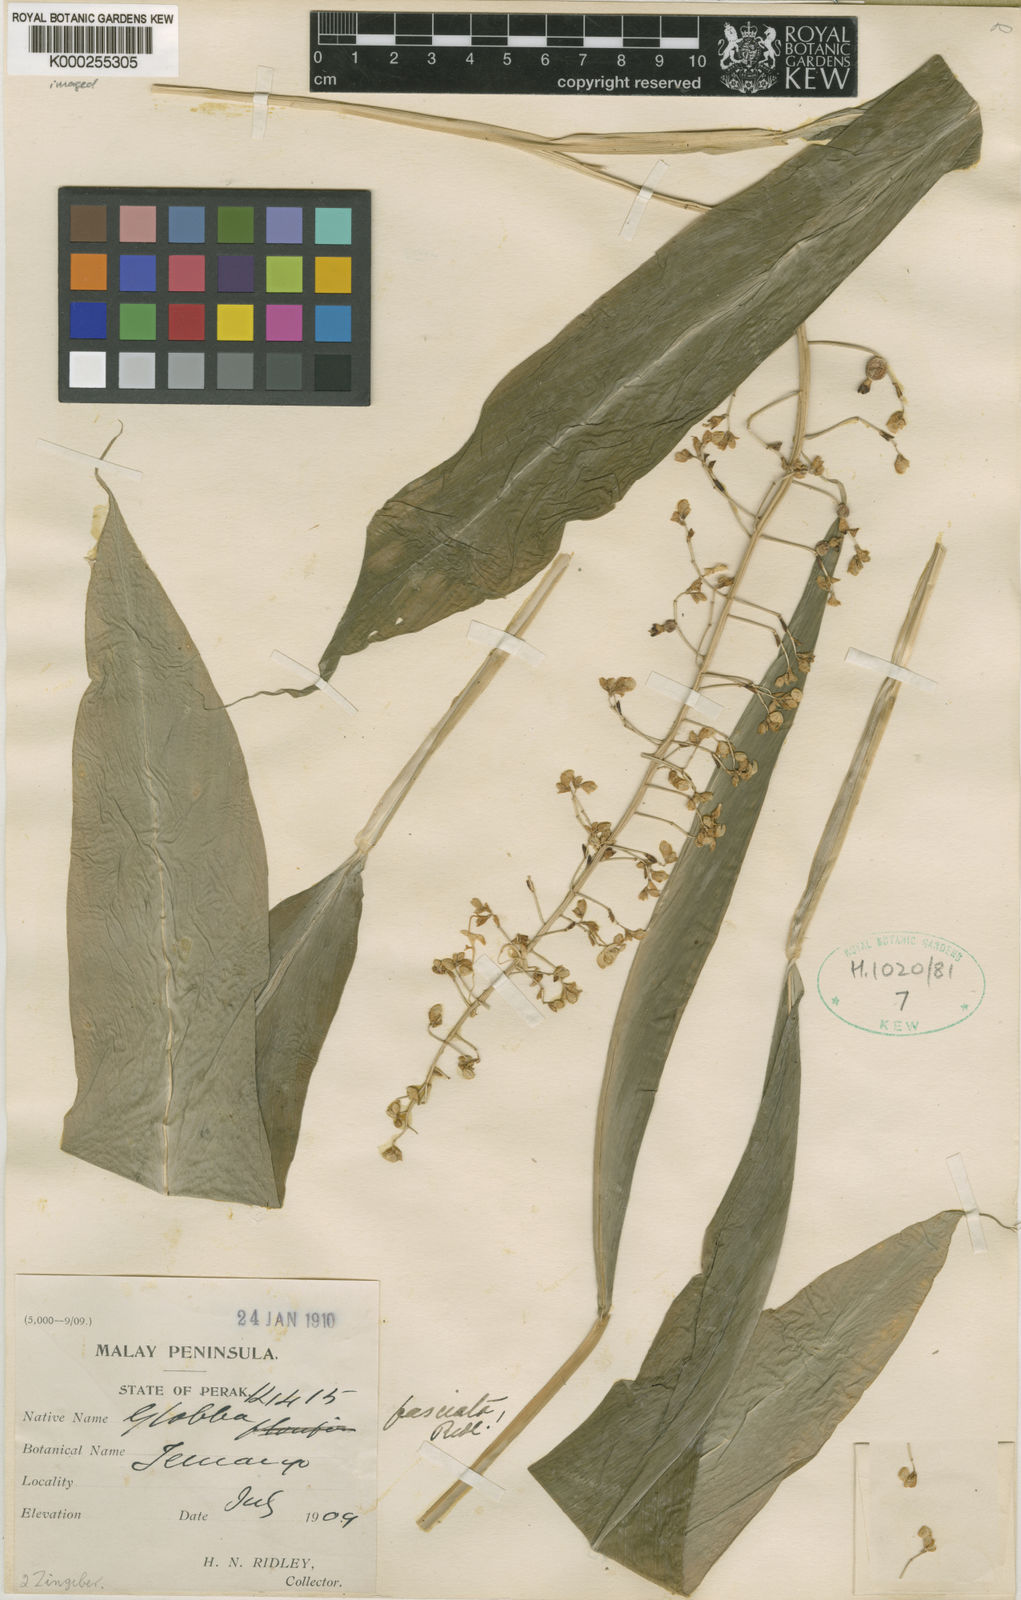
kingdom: Plantae
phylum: Tracheophyta
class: Liliopsida
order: Zingiberales
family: Zingiberaceae
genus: Globba
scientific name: Globba pendula
